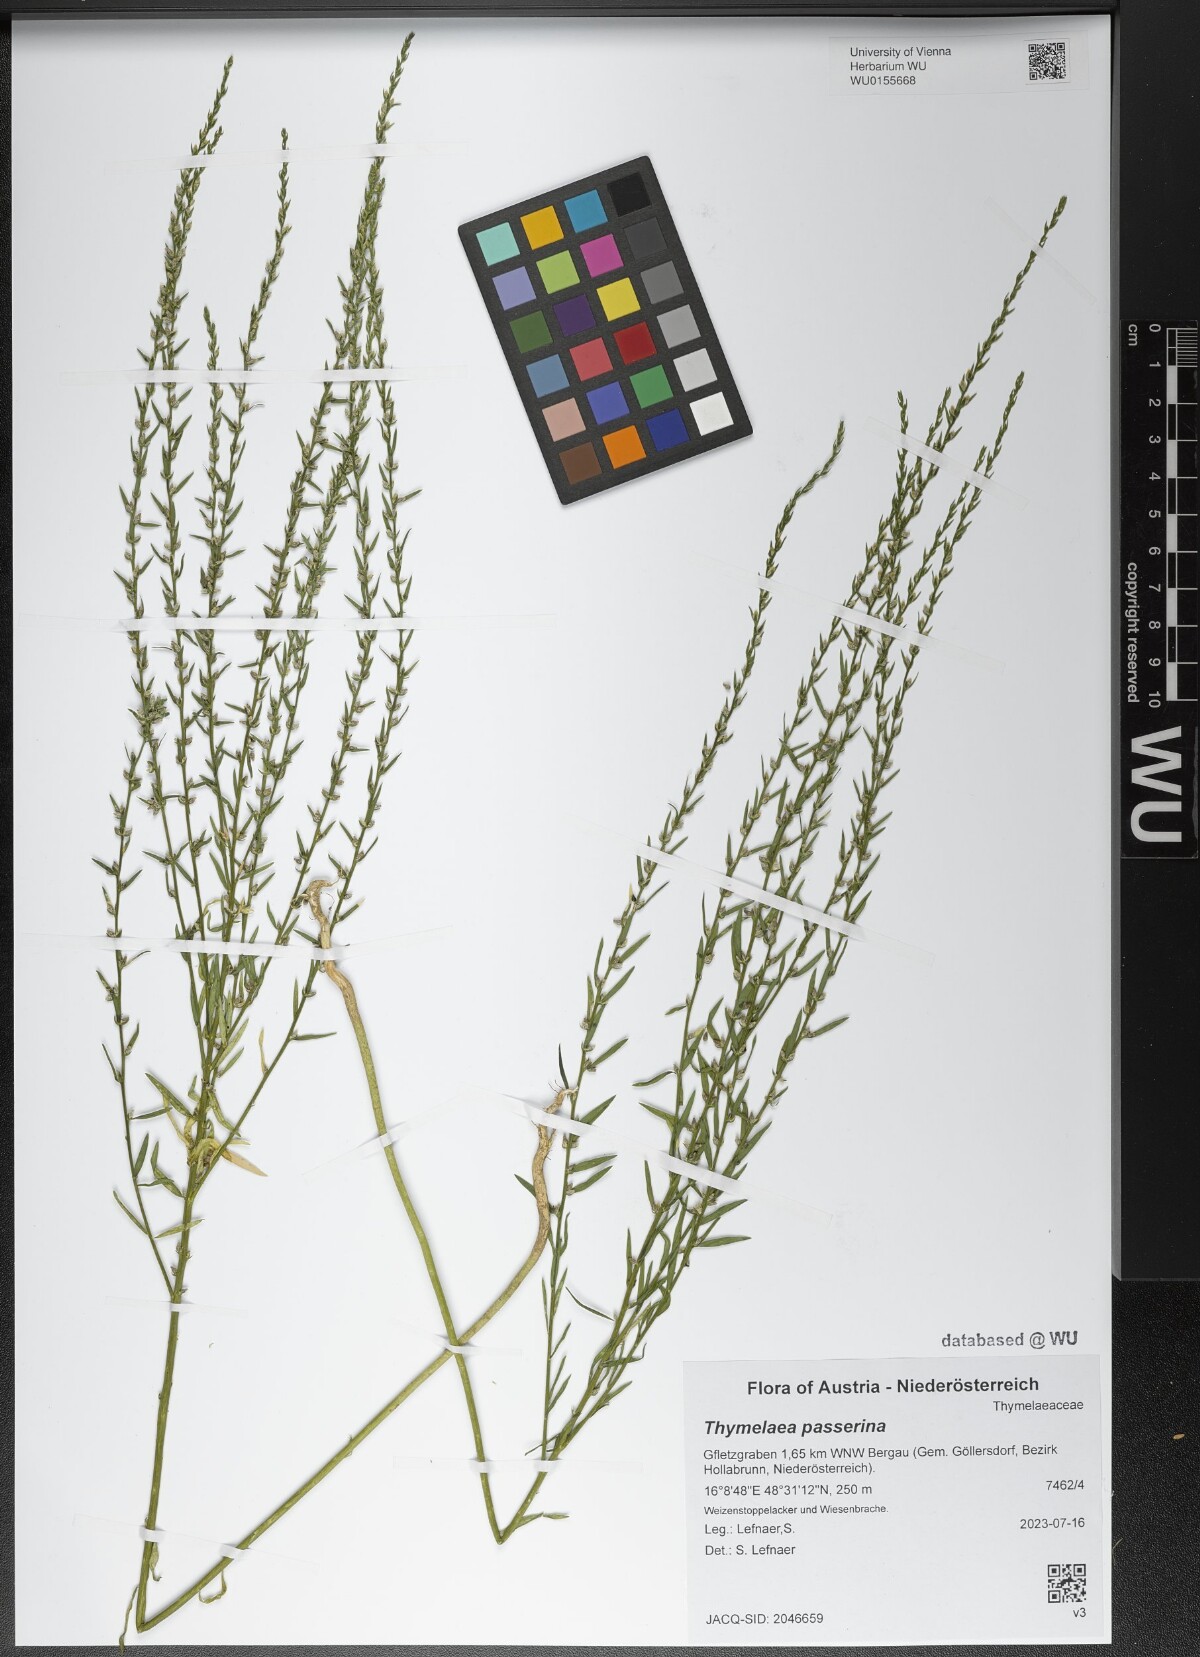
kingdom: Plantae
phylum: Tracheophyta
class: Magnoliopsida
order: Malvales
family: Thymelaeaceae
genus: Thymelaea
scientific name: Thymelaea passerina
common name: Annual thymelaea
